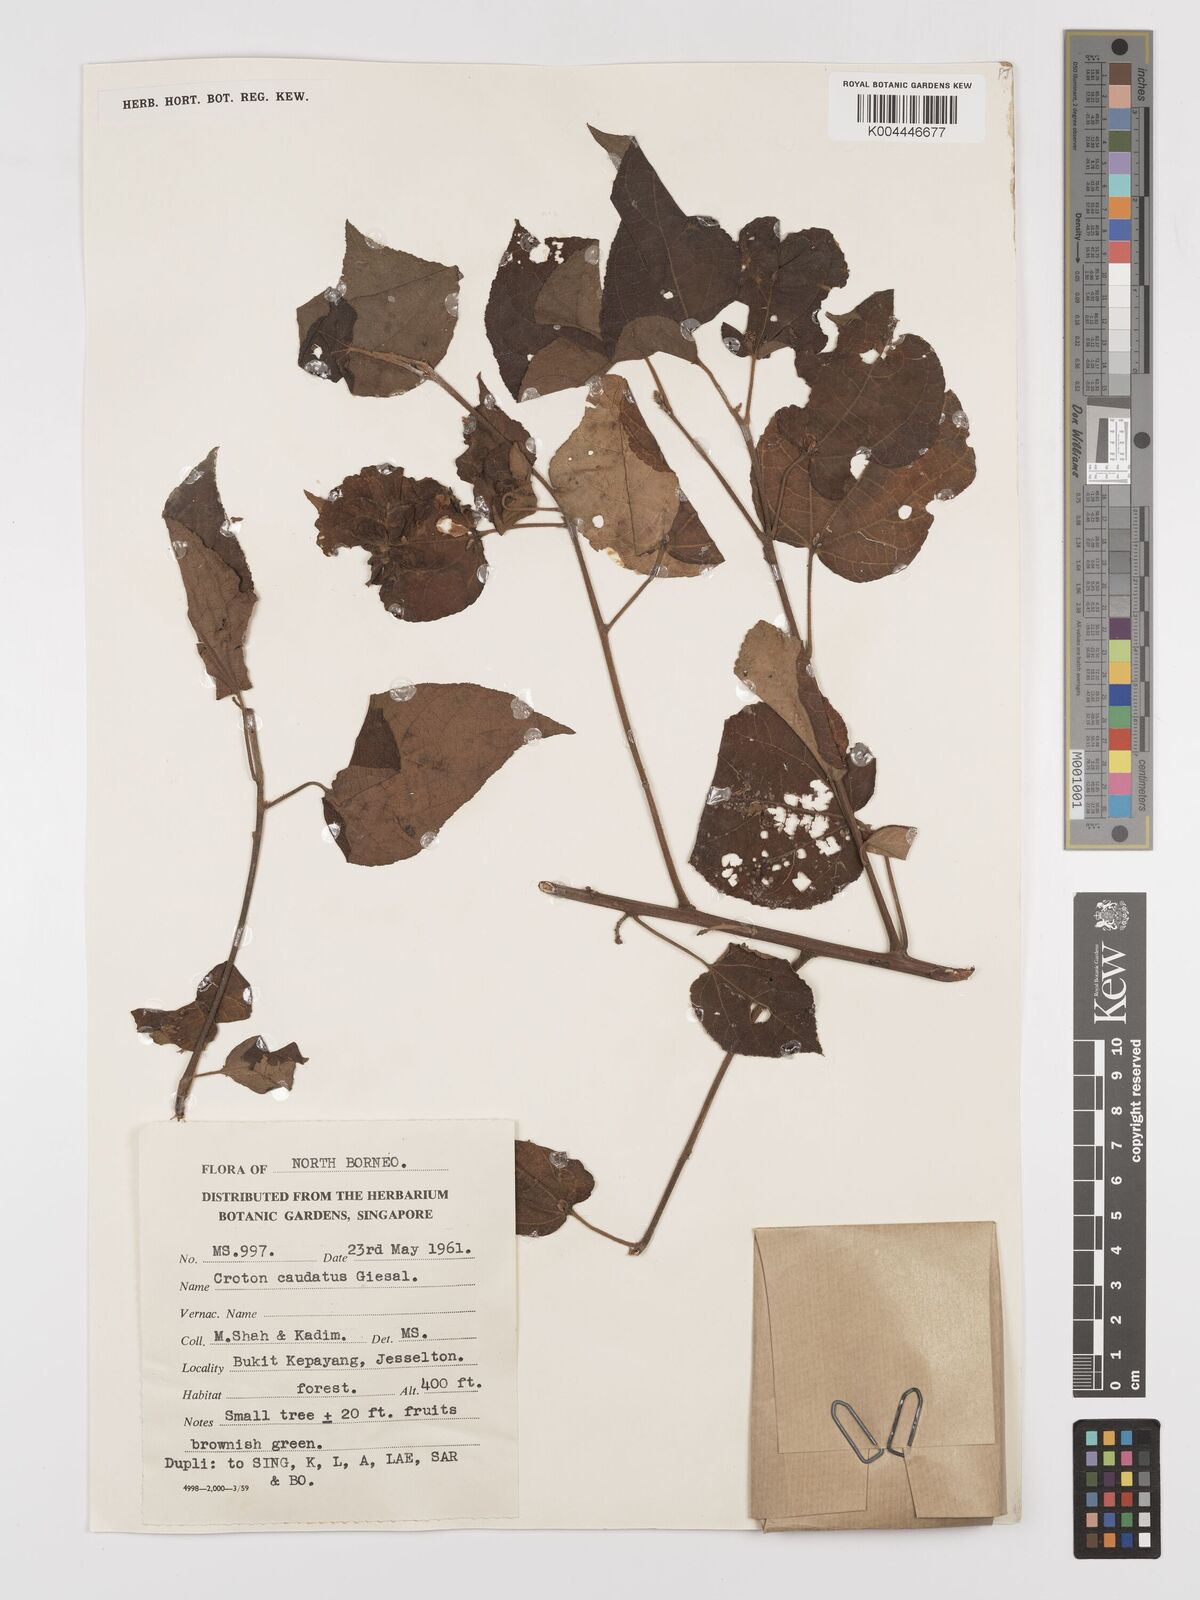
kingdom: Plantae
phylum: Tracheophyta
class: Magnoliopsida
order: Malpighiales
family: Euphorbiaceae
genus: Croton
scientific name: Croton caudatus
